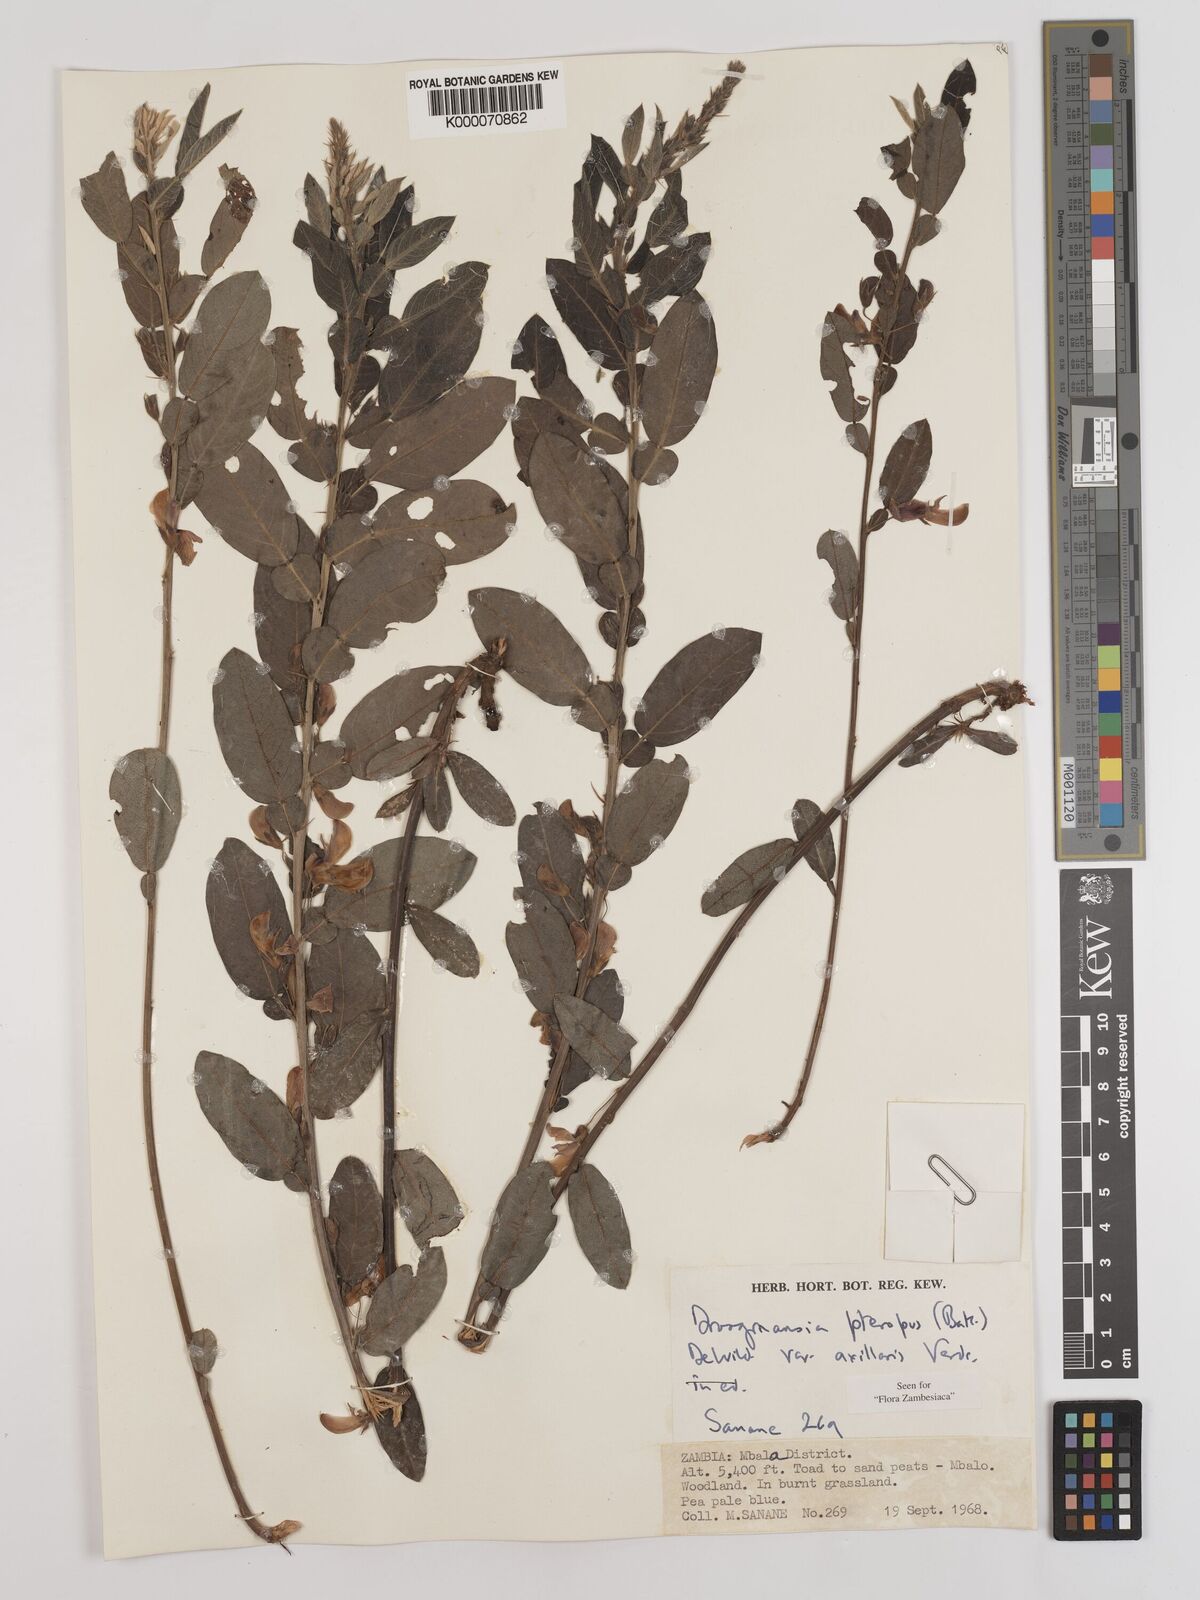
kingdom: Plantae
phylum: Tracheophyta
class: Magnoliopsida
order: Fabales
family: Fabaceae
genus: Droogmansia
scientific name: Droogmansia pteropus
